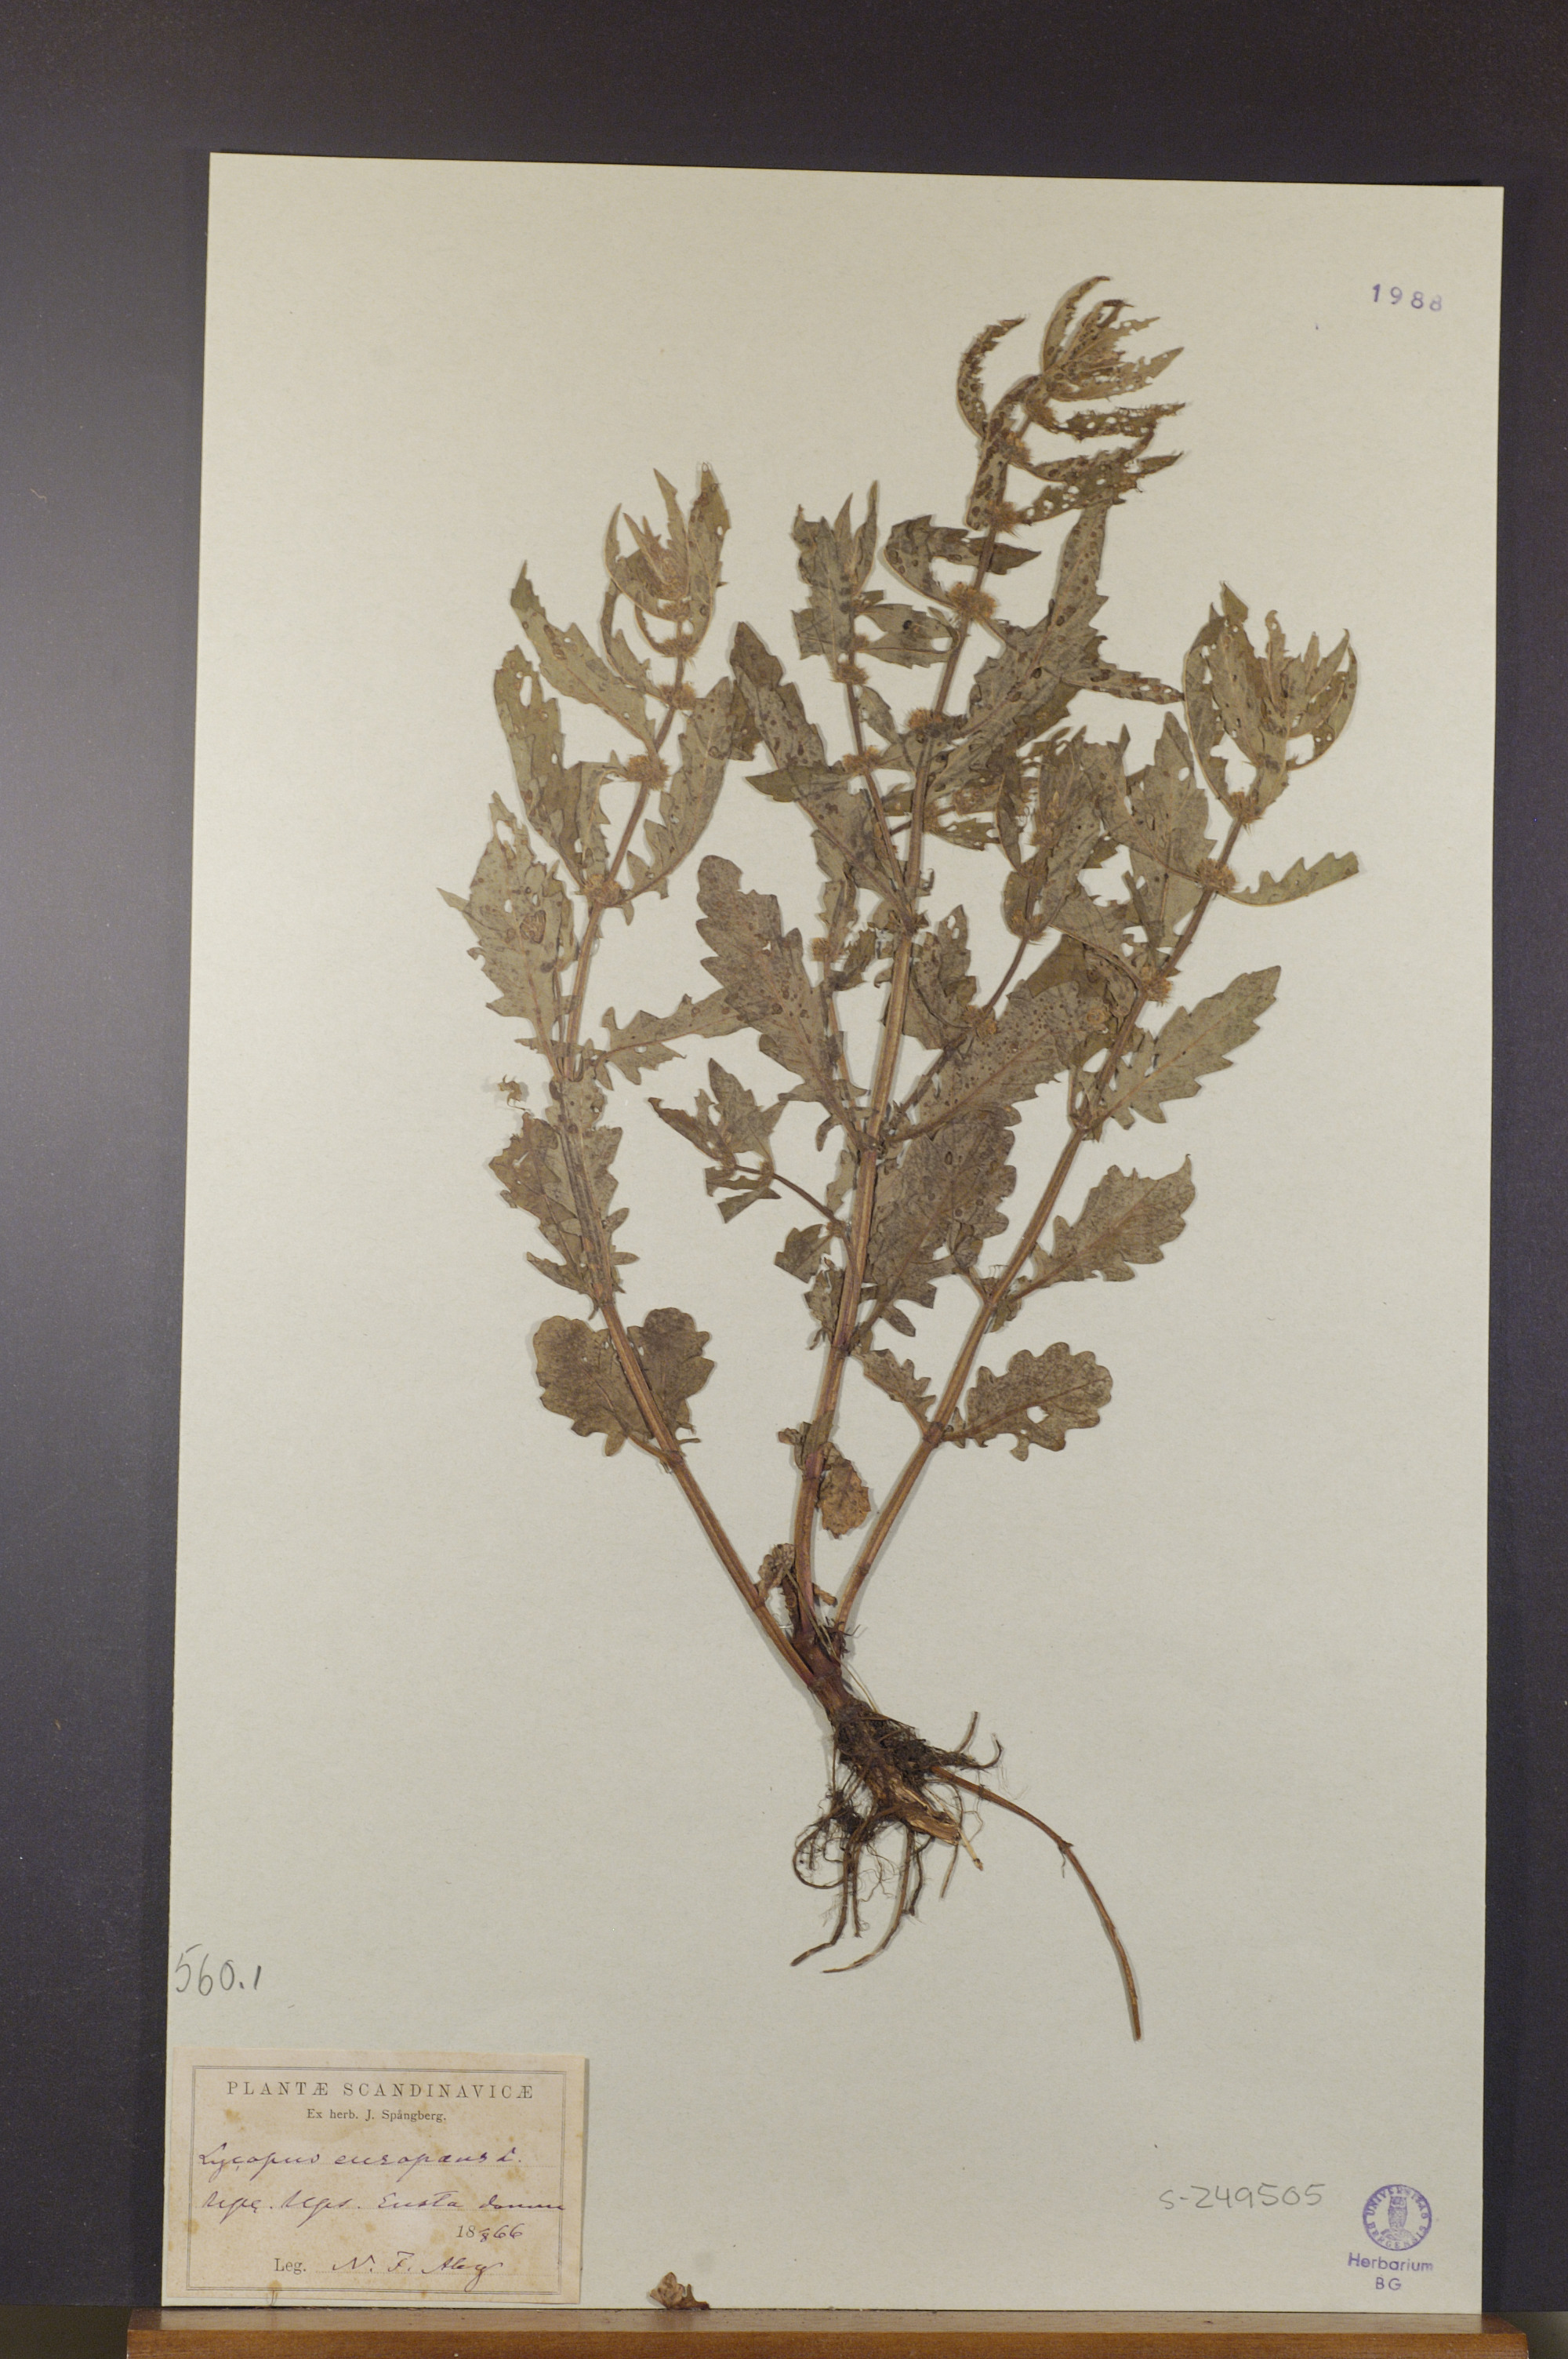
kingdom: Plantae
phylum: Tracheophyta
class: Magnoliopsida
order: Lamiales
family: Lamiaceae
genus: Lycopus
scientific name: Lycopus europaeus
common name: European bugleweed
